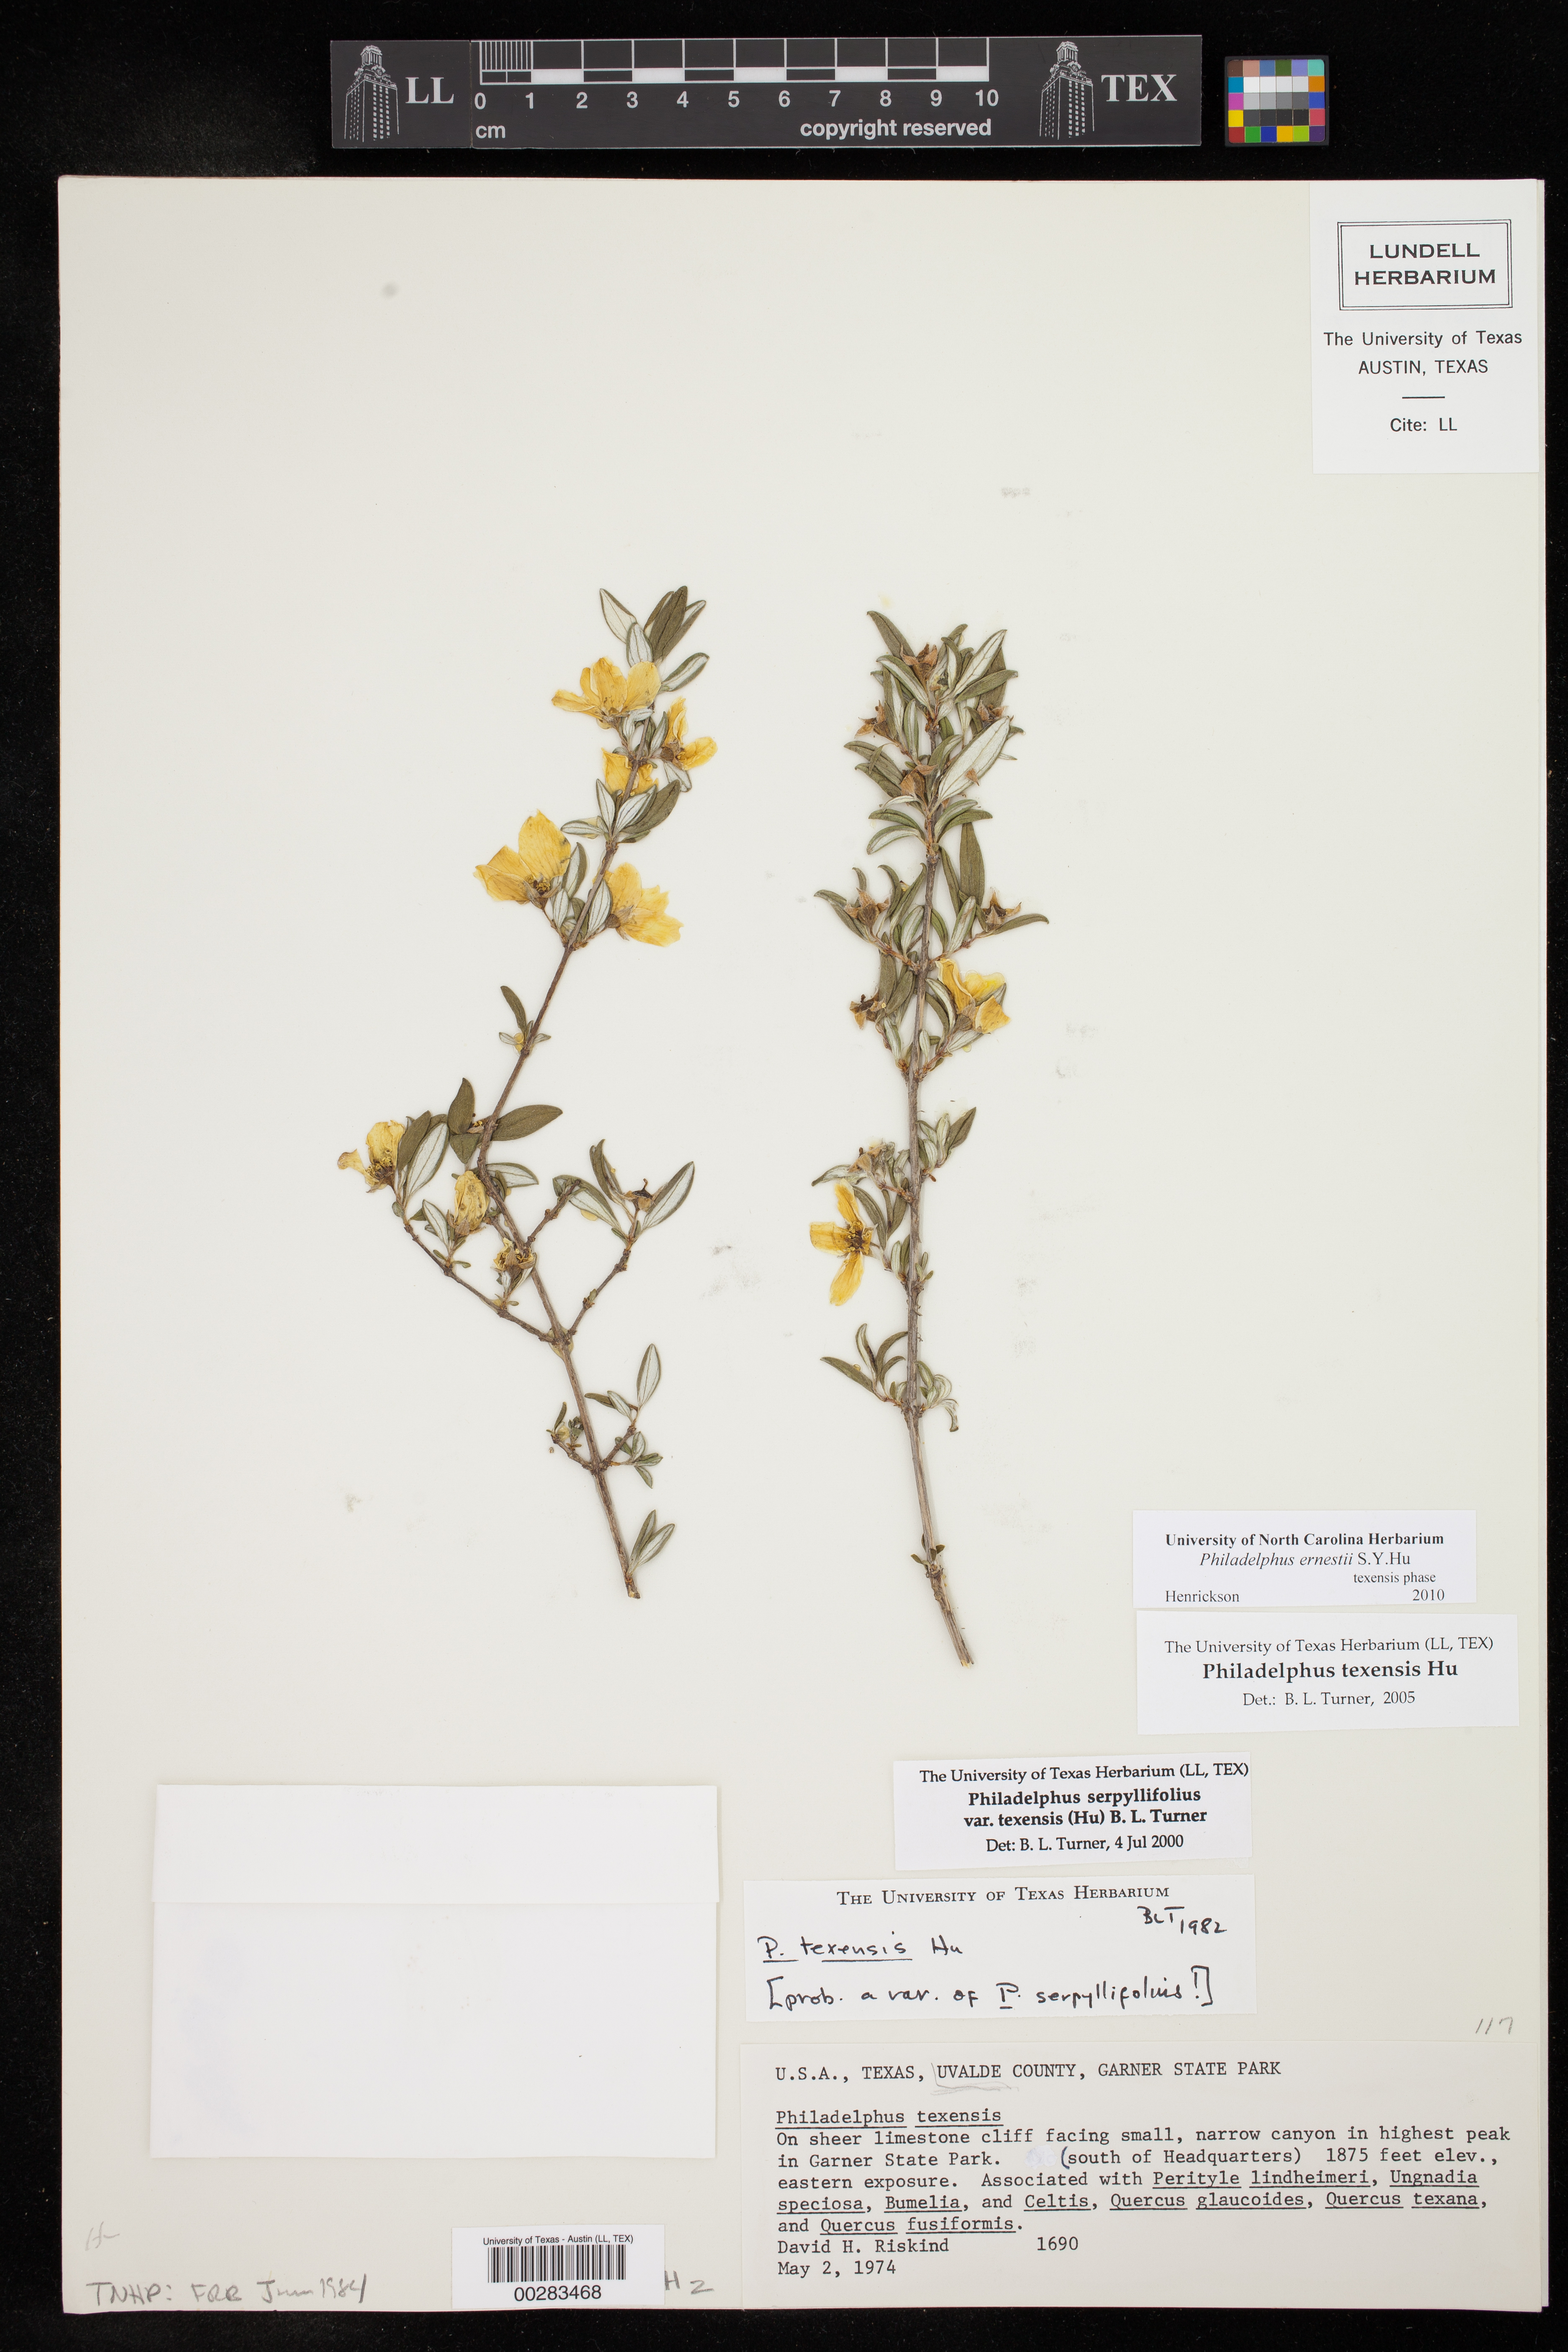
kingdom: Plantae
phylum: Tracheophyta
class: Magnoliopsida
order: Cornales
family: Hydrangeaceae
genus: Philadelphus
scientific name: Philadelphus texensis
